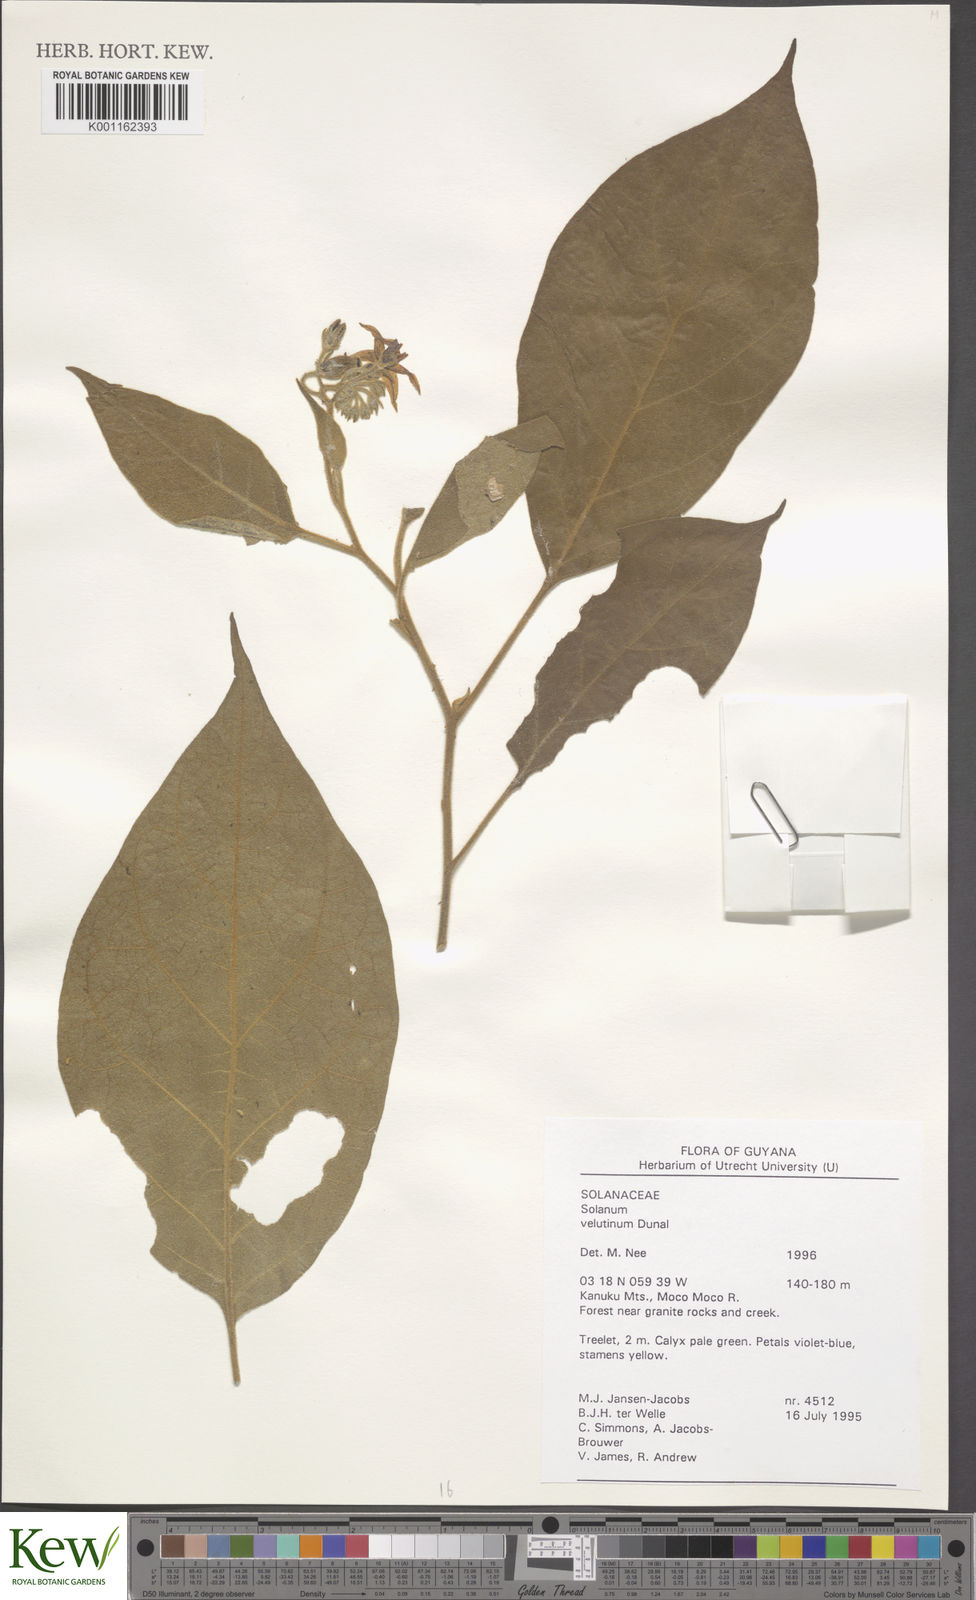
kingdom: Plantae
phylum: Tracheophyta
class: Magnoliopsida
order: Solanales
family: Solanaceae
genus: Solanum
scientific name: Solanum velutinum
